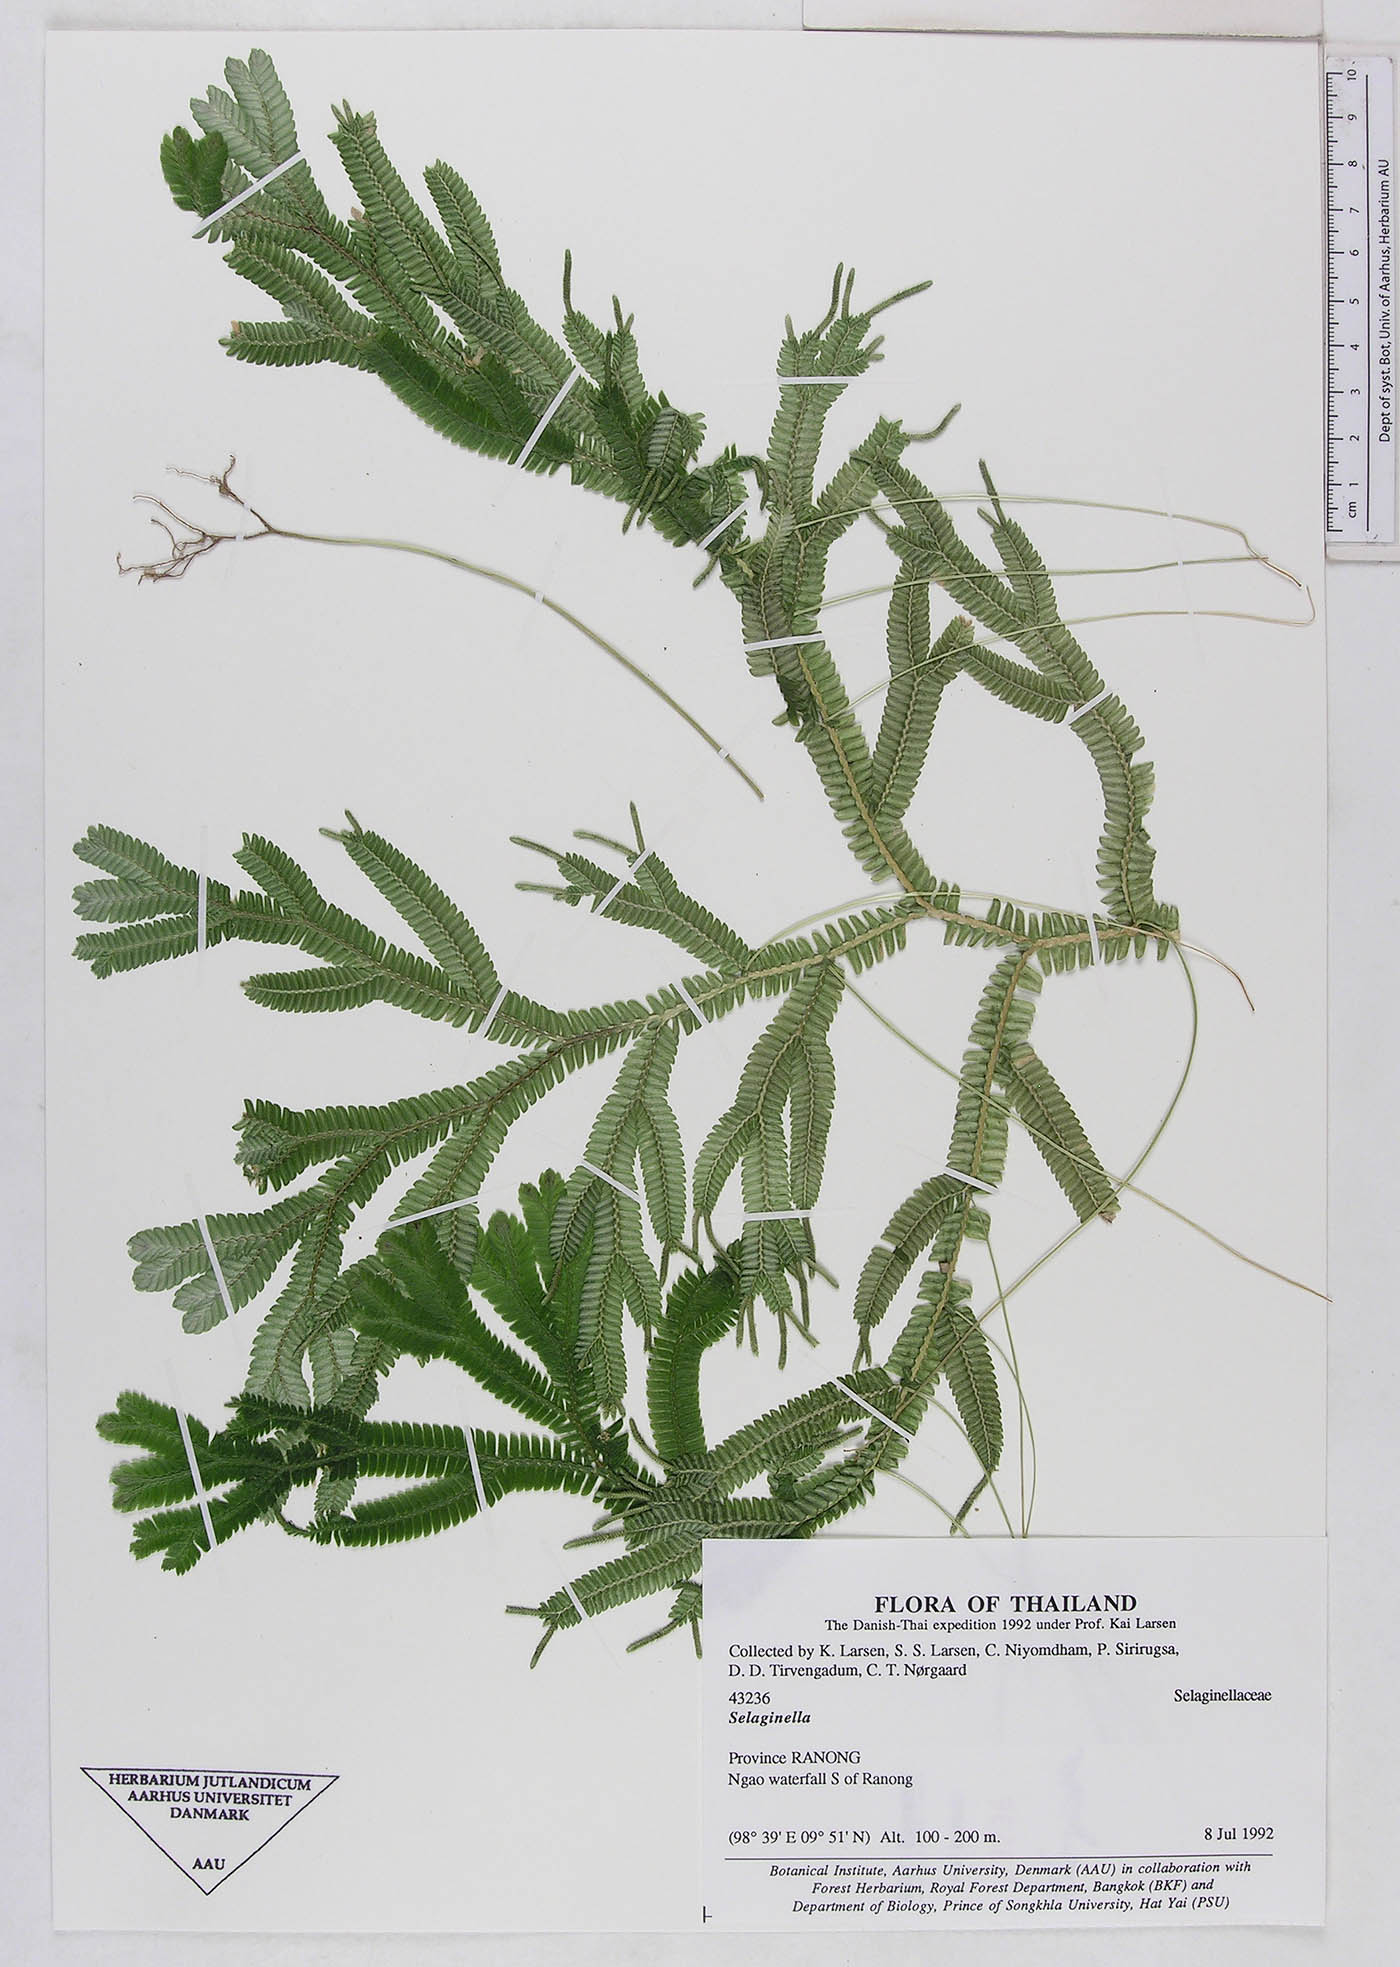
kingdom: Plantae
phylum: Tracheophyta
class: Lycopodiopsida
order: Selaginellales
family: Selaginellaceae
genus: Selaginella
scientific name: Selaginella
